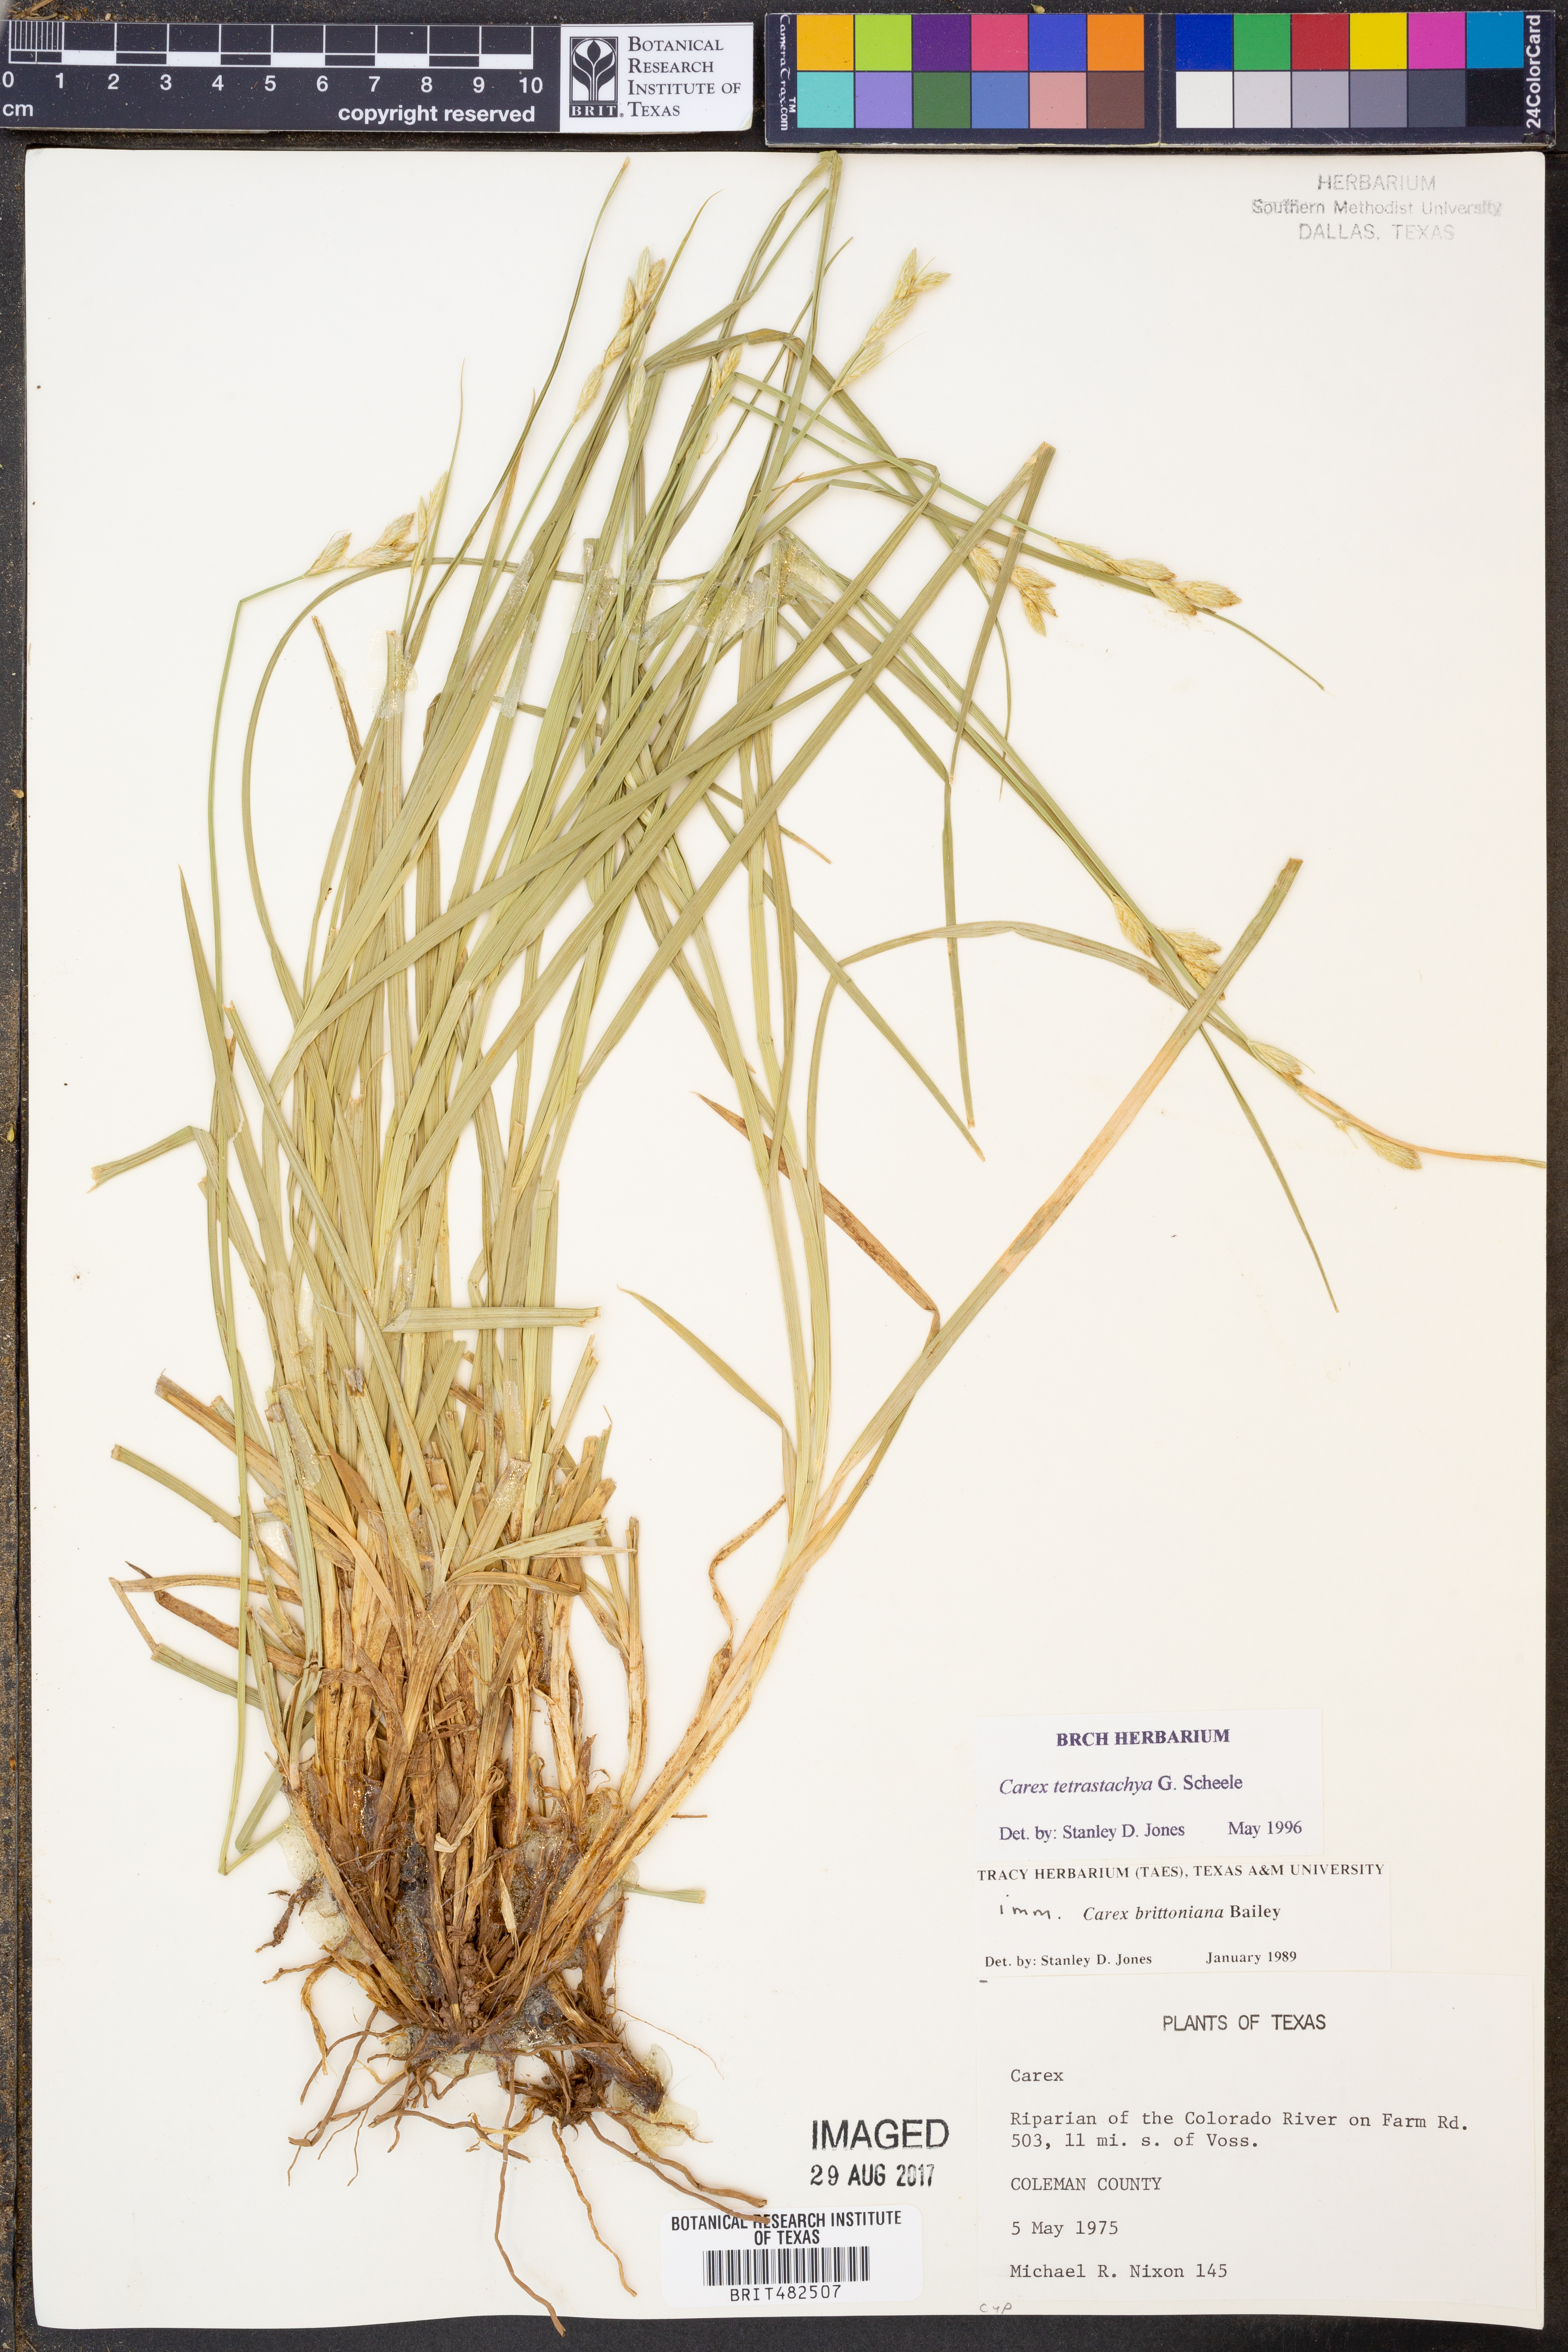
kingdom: Plantae
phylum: Tracheophyta
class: Liliopsida
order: Poales
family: Cyperaceae
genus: Carex
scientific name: Carex tetrastachya
